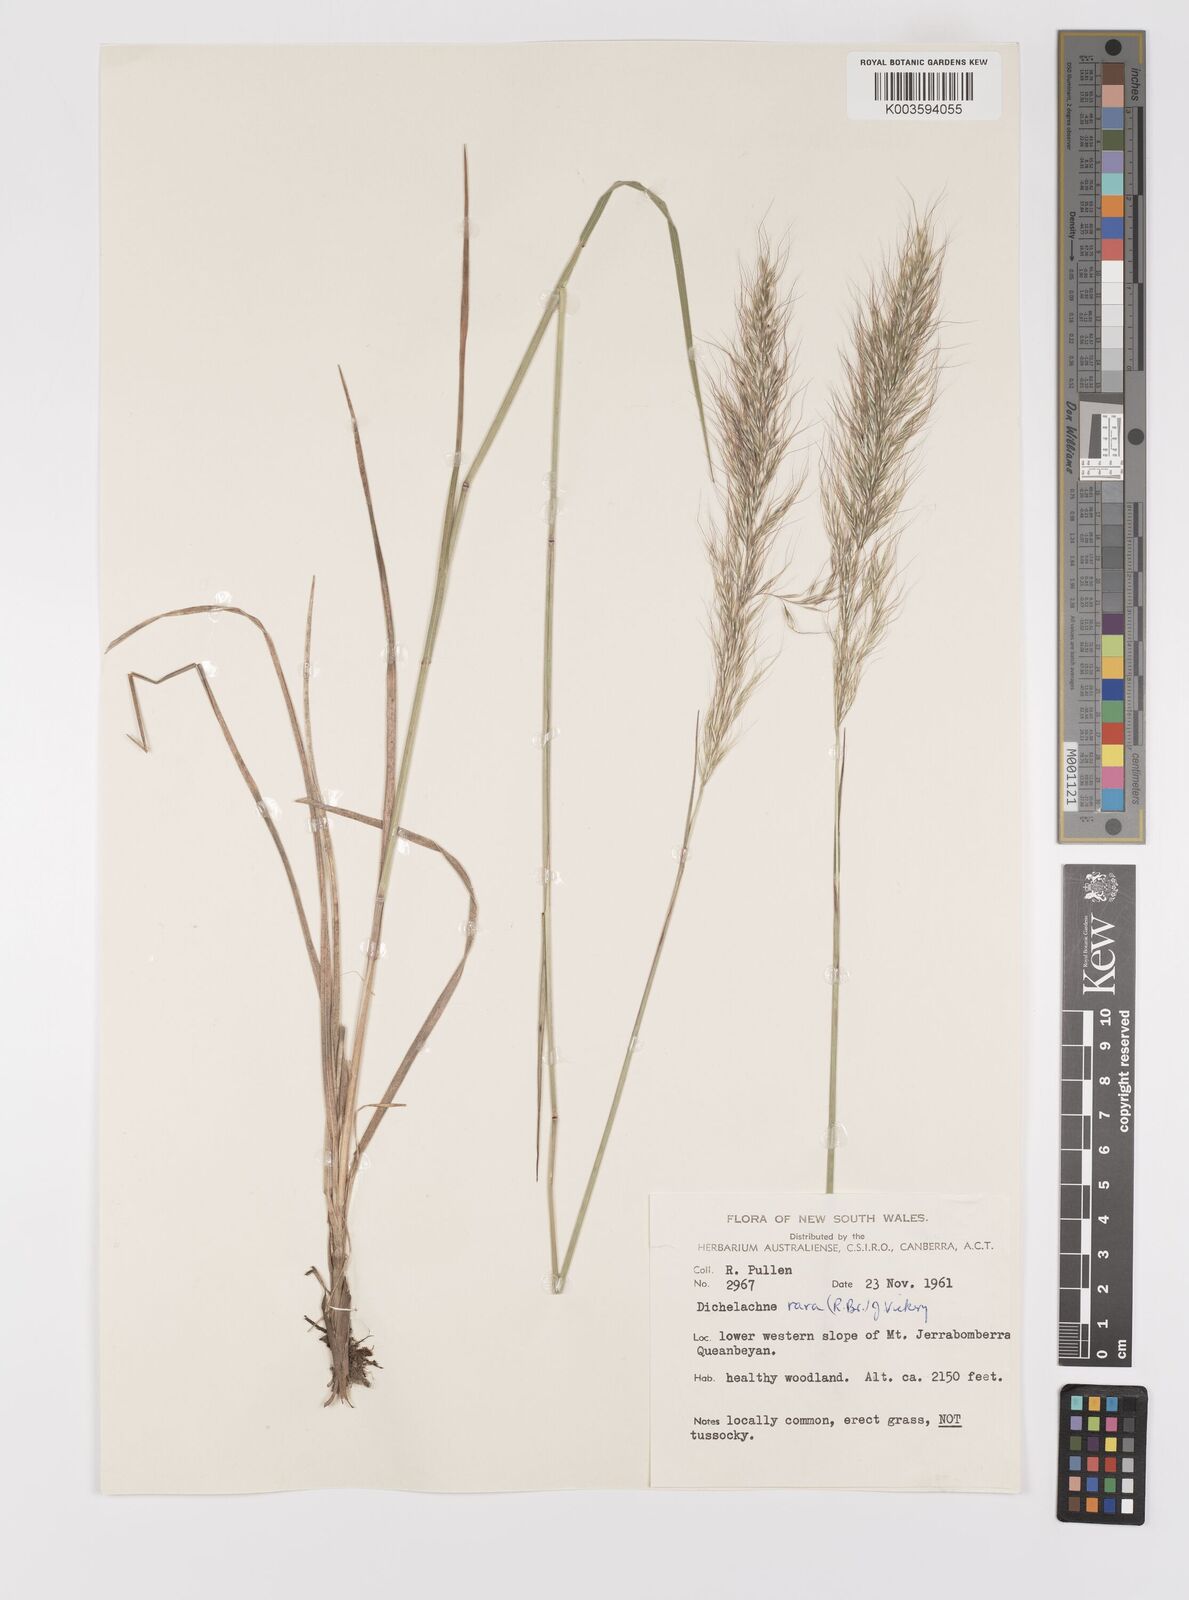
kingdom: Plantae
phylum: Tracheophyta
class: Liliopsida
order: Poales
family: Poaceae
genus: Dichelachne
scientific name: Dichelachne rara
